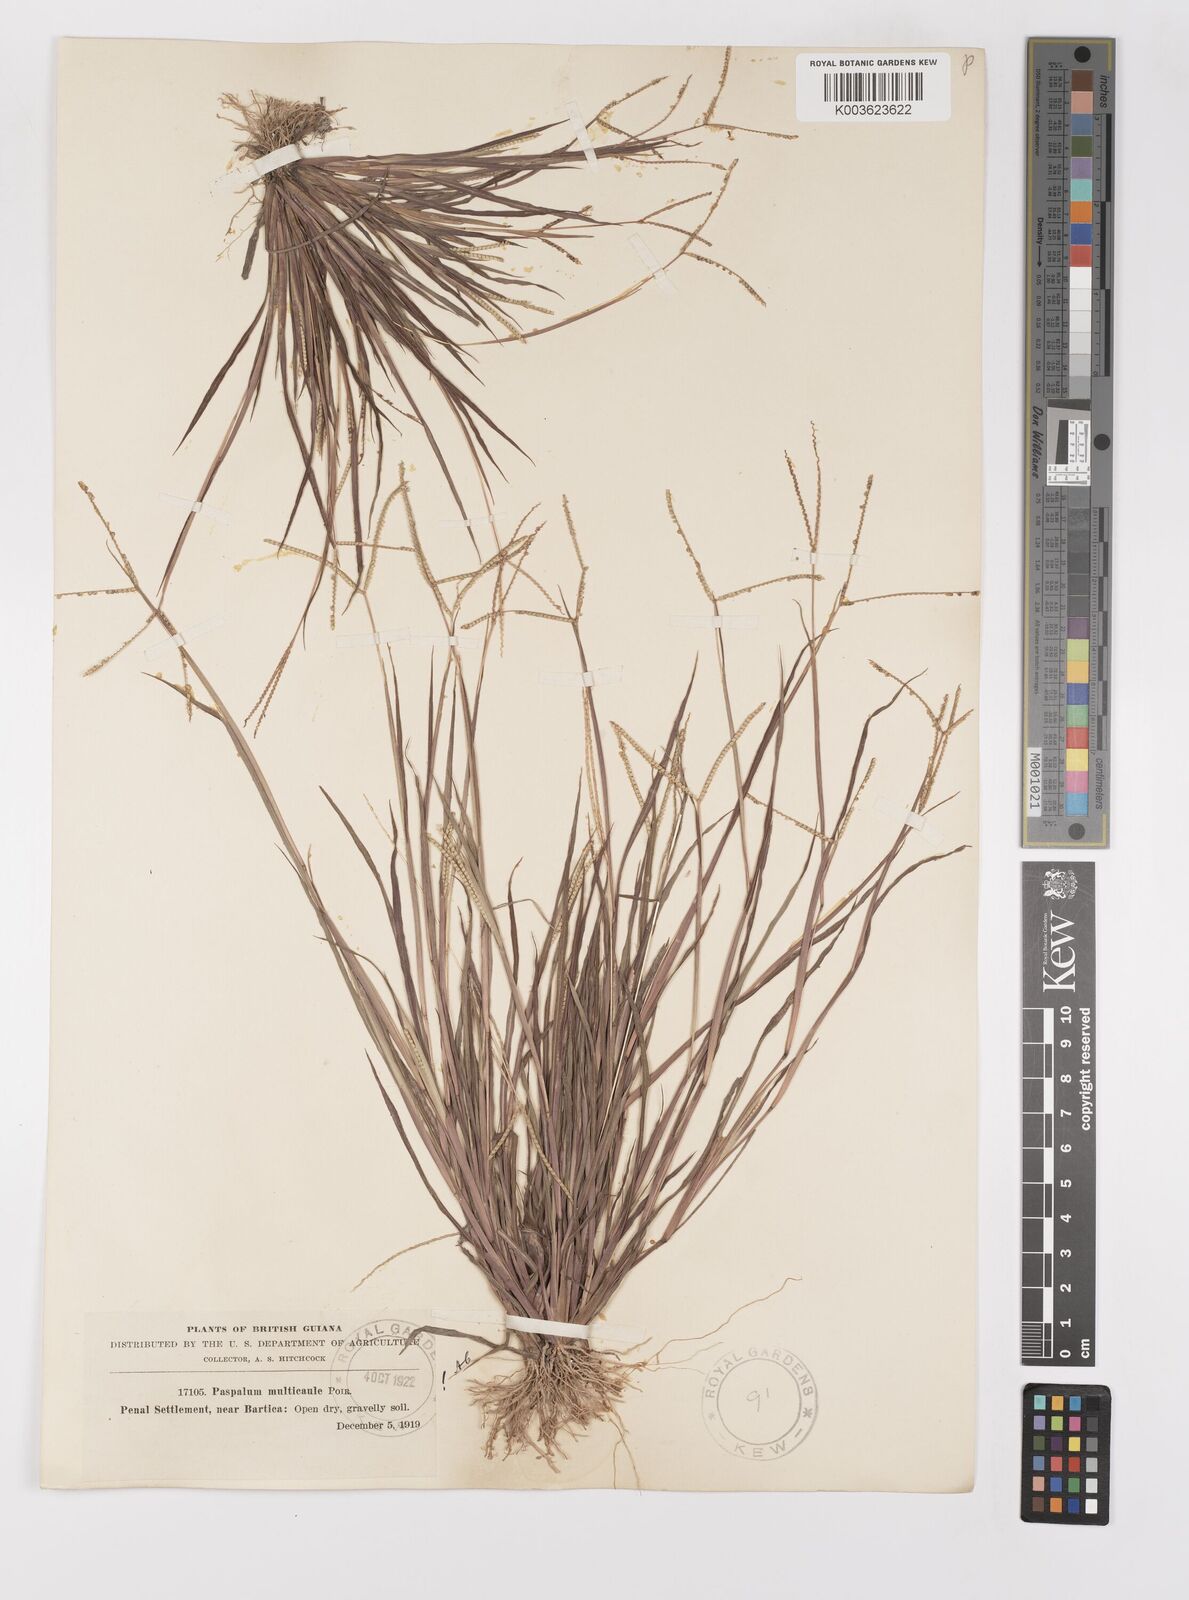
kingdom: Plantae
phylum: Tracheophyta
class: Liliopsida
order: Poales
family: Poaceae
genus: Paspalum
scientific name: Paspalum multicaule
